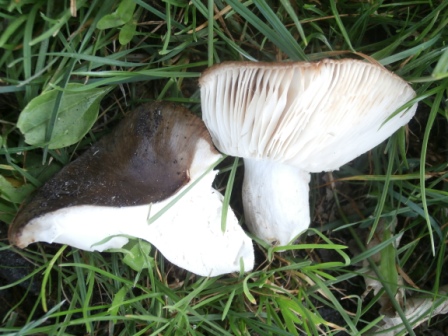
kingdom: Fungi
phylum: Basidiomycota
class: Agaricomycetes
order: Russulales
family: Russulaceae
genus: Russula
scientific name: Russula sororia
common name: brun kam-skørhat
